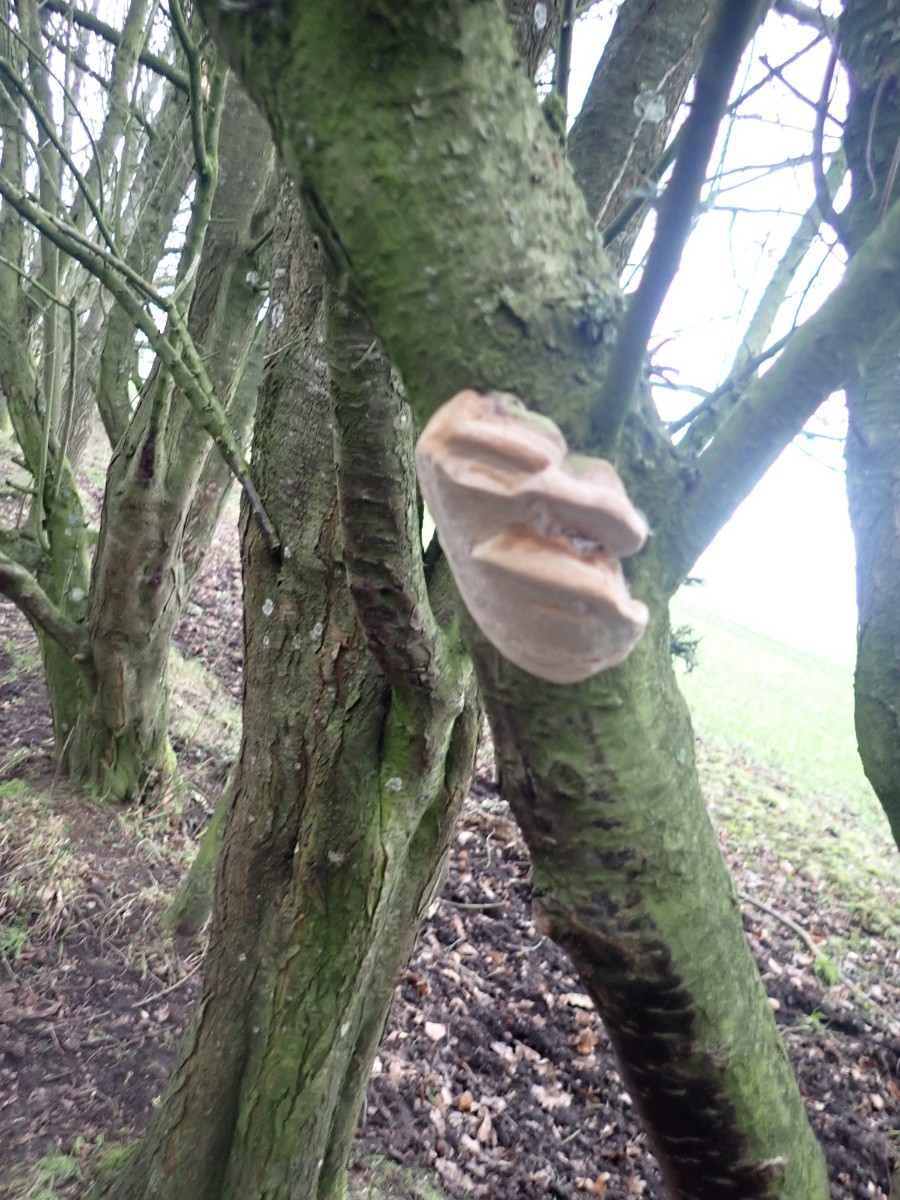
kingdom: Fungi
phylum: Basidiomycota
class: Agaricomycetes
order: Hymenochaetales
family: Hymenochaetaceae
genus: Phellinus
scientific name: Phellinus pomaceus
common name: blomme-ildporesvamp
